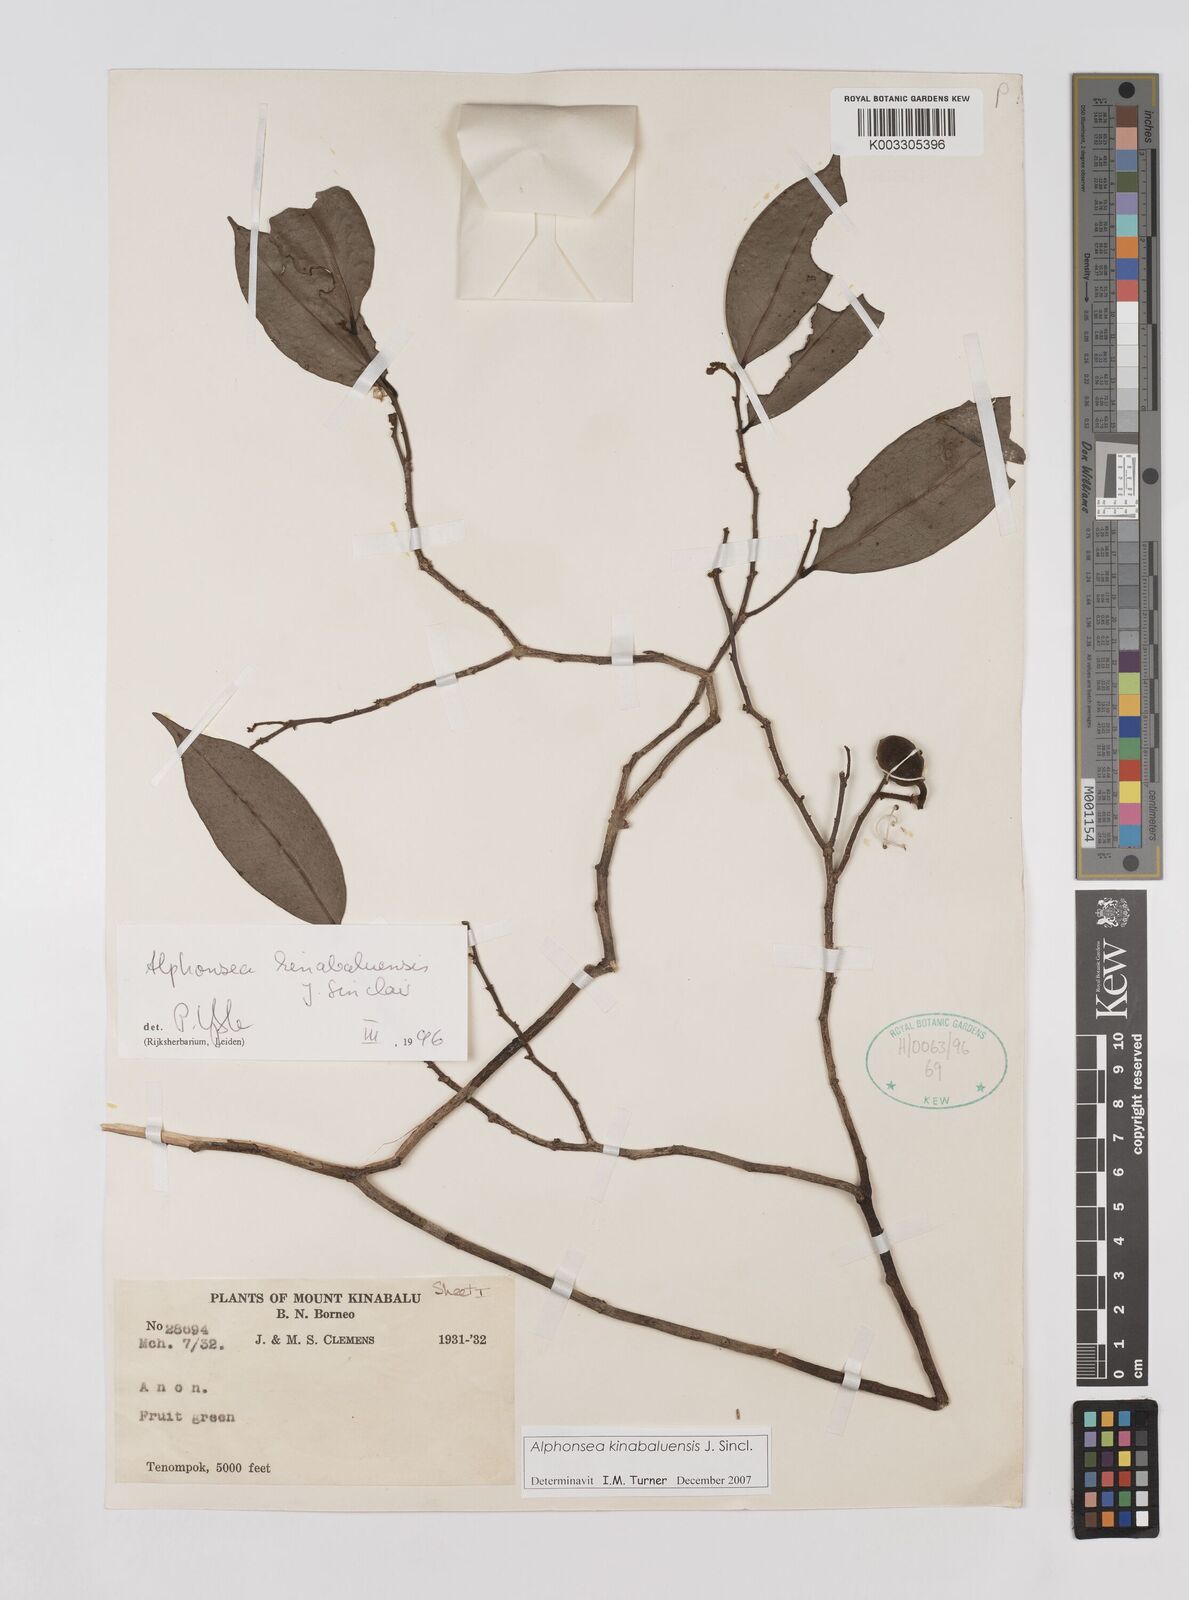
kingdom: Plantae
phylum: Tracheophyta
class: Magnoliopsida
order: Magnoliales
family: Annonaceae
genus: Alphonsea
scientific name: Alphonsea kinabaluensis
